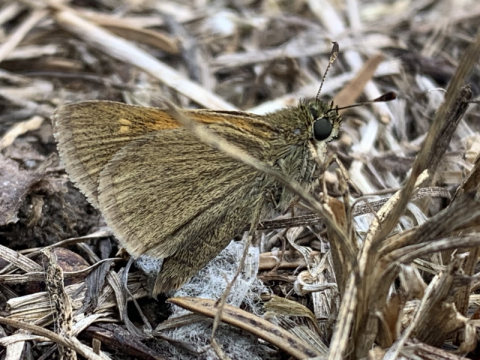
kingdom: Animalia
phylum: Arthropoda
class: Insecta
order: Lepidoptera
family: Hesperiidae
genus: Polites
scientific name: Polites themistocles
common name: Tawny-edged Skipper
